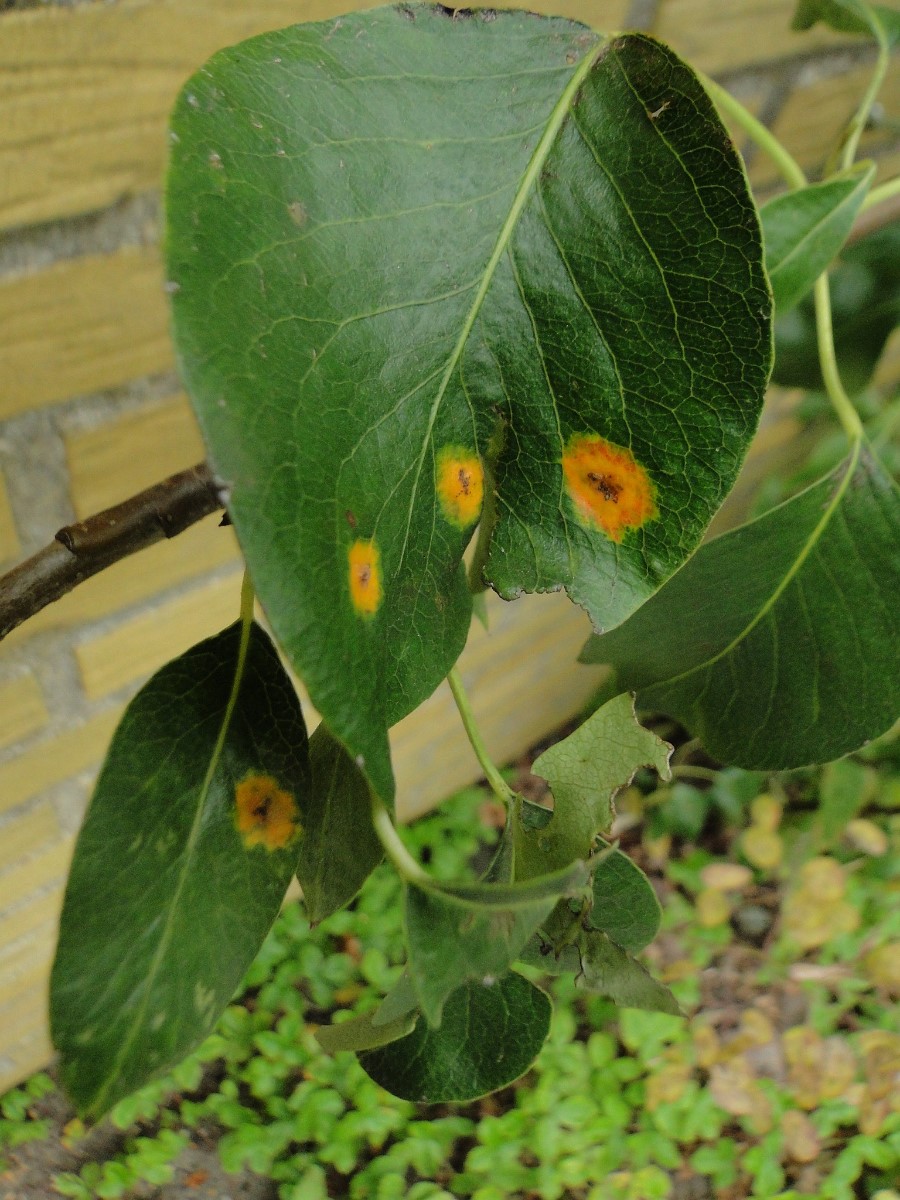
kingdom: Fungi
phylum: Basidiomycota
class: Pucciniomycetes
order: Pucciniales
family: Gymnosporangiaceae
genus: Gymnosporangium
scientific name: Gymnosporangium sabinae
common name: pæregitter-bævrerust
